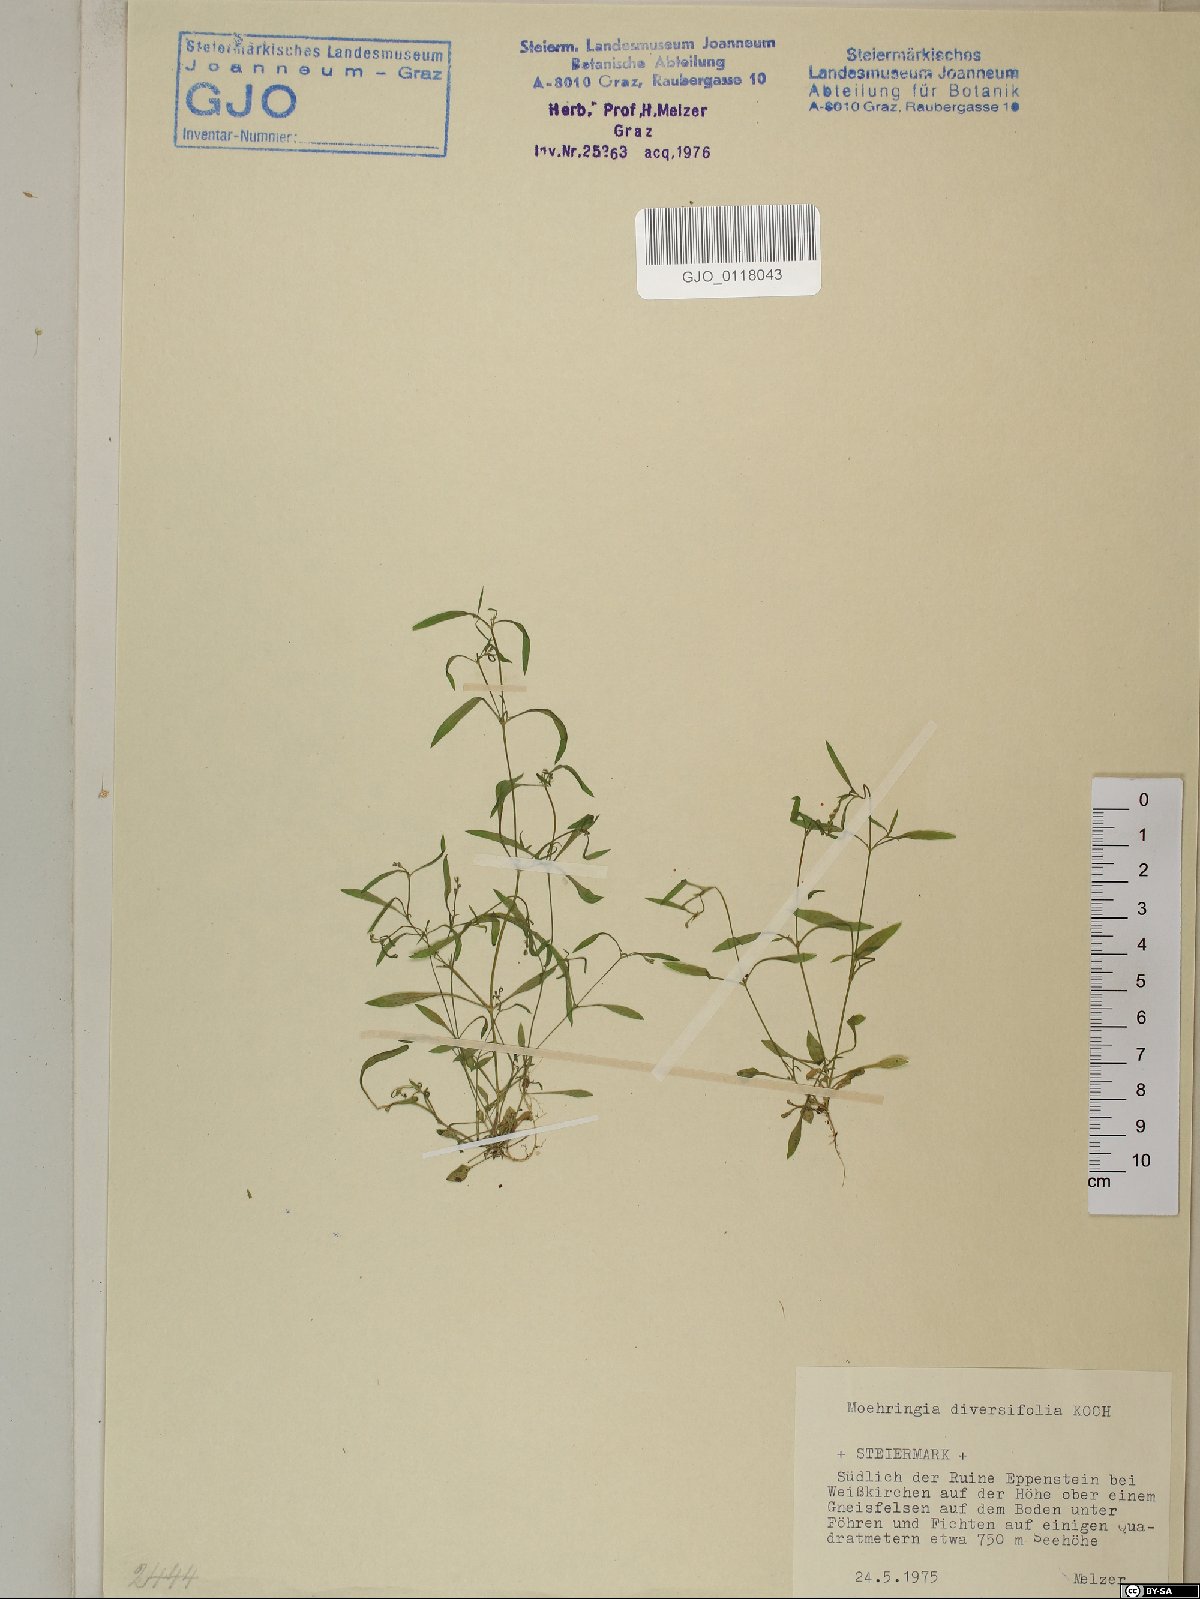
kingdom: Plantae
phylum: Tracheophyta
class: Magnoliopsida
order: Caryophyllales
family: Caryophyllaceae
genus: Moehringia
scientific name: Moehringia diversifolia
